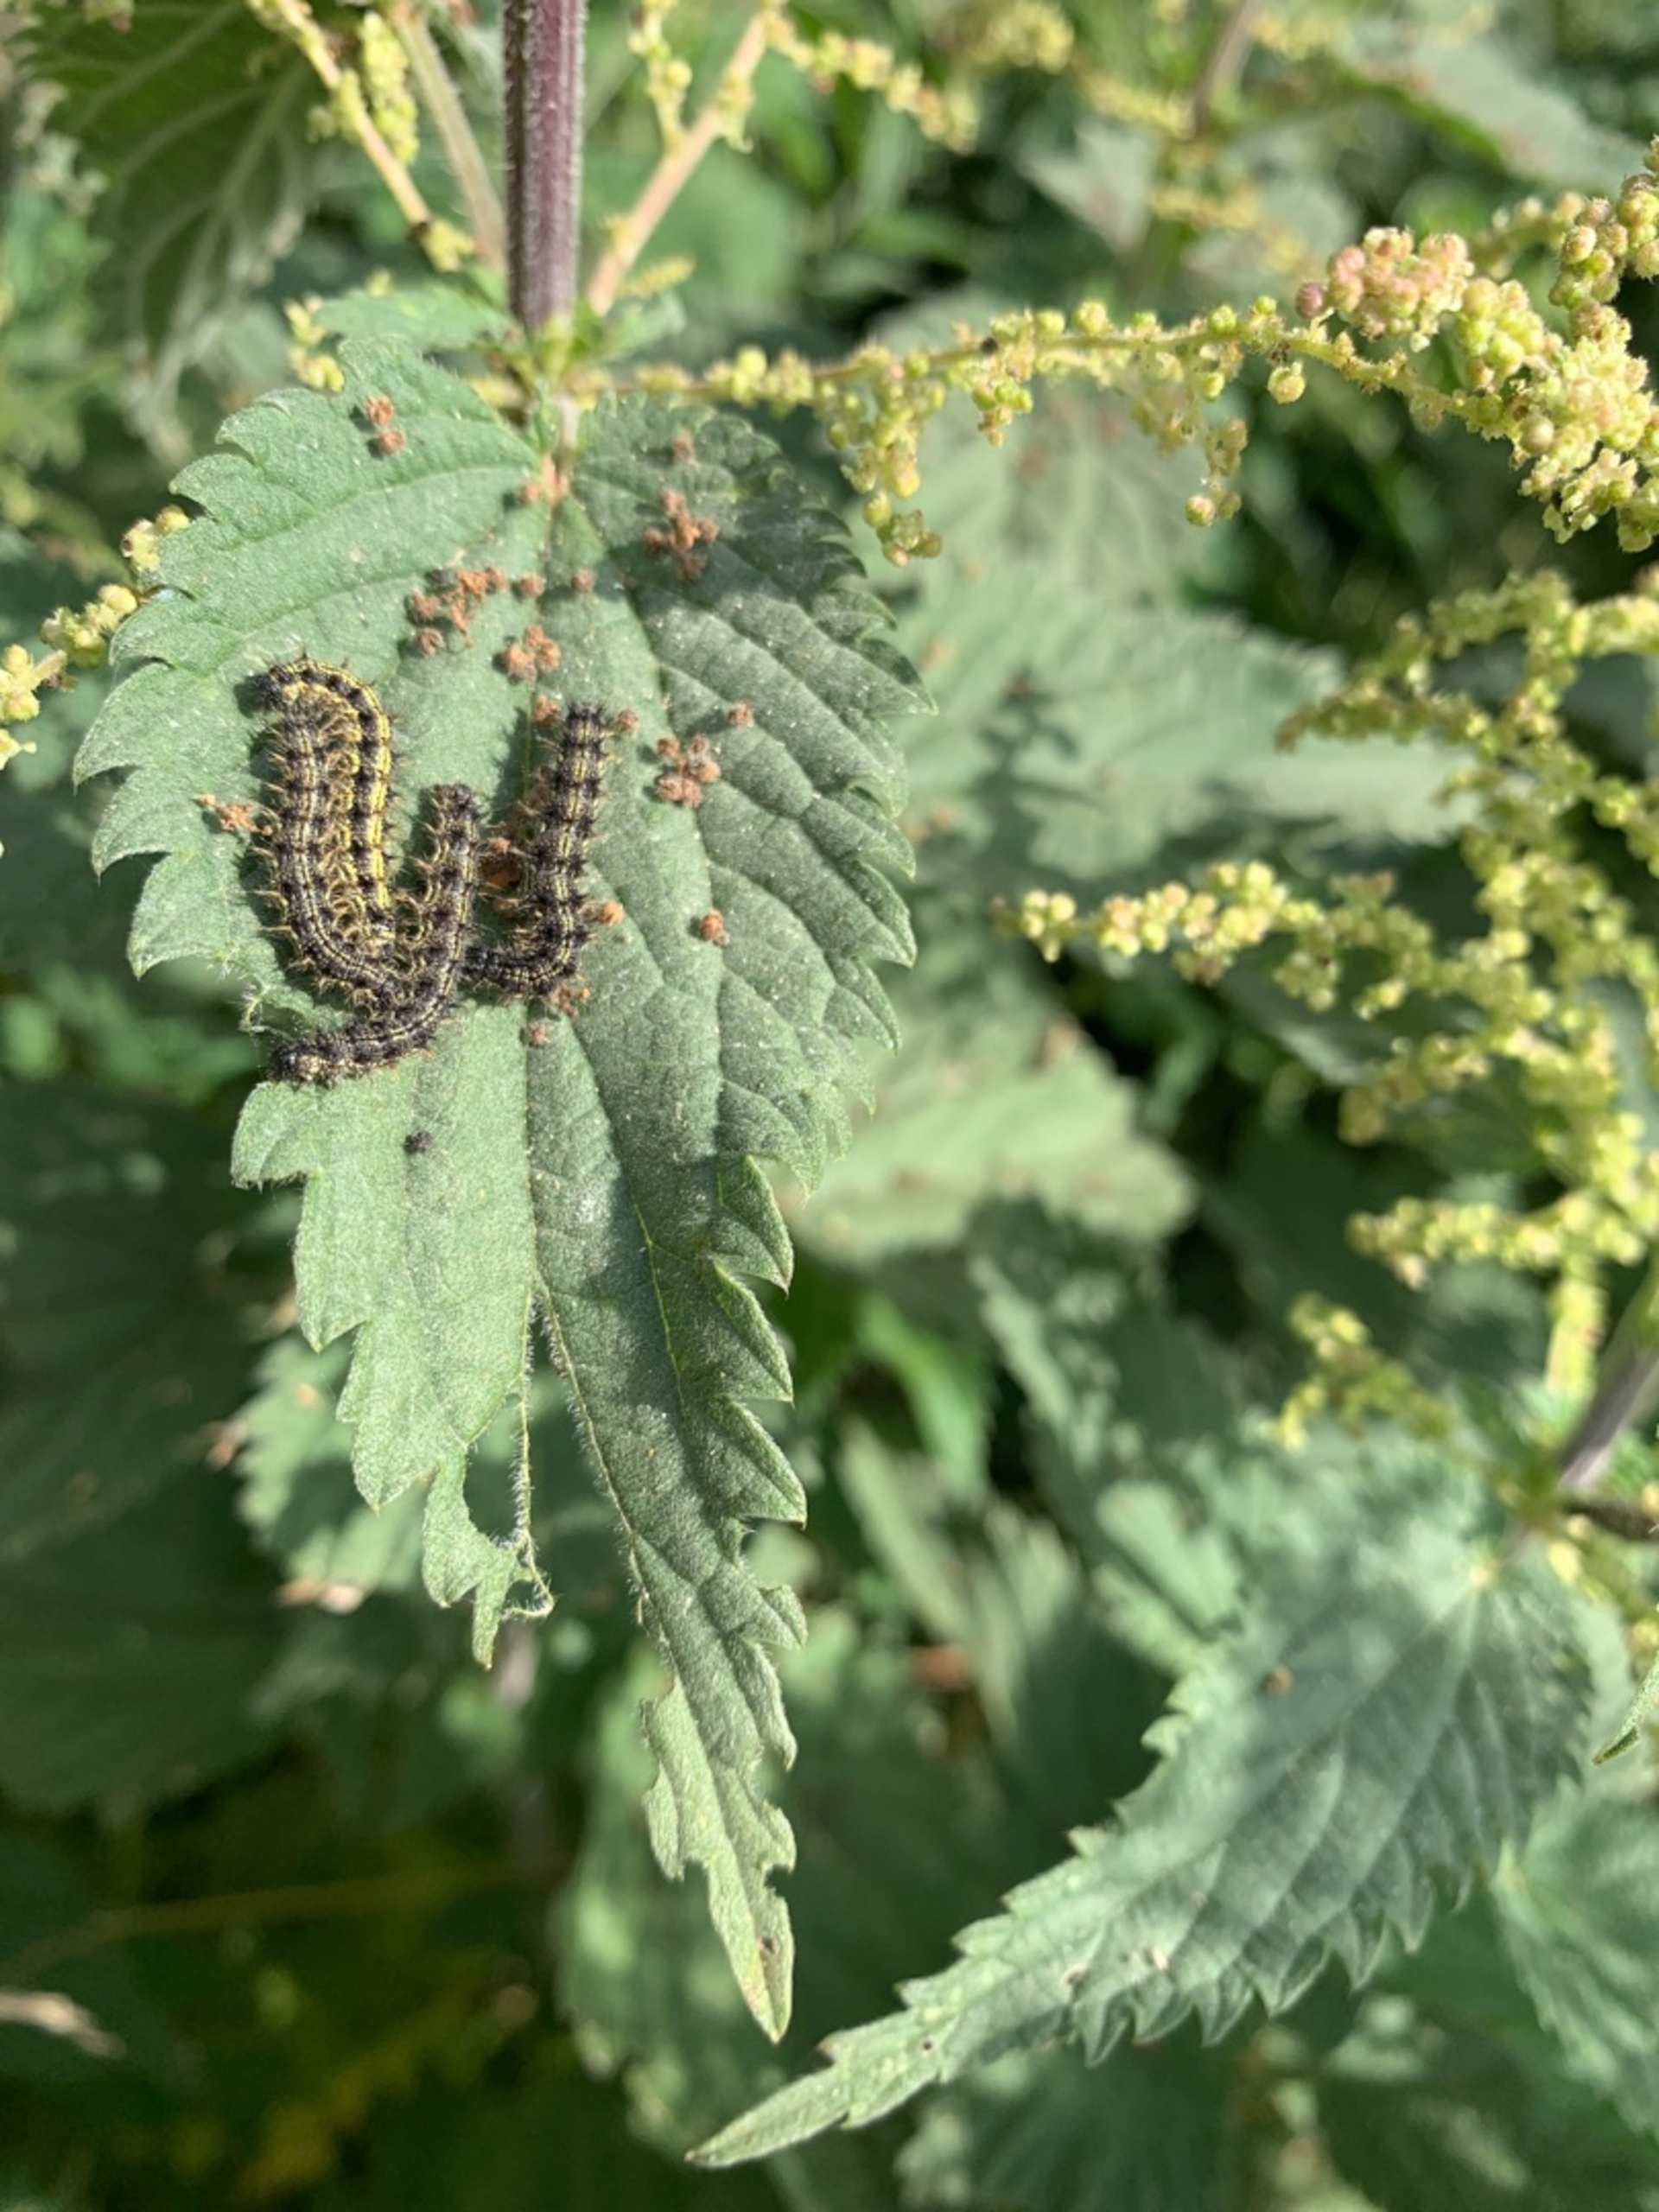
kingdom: Animalia
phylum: Arthropoda
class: Insecta
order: Lepidoptera
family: Nymphalidae
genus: Aglais
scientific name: Aglais urticae
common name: Nældens takvinge
